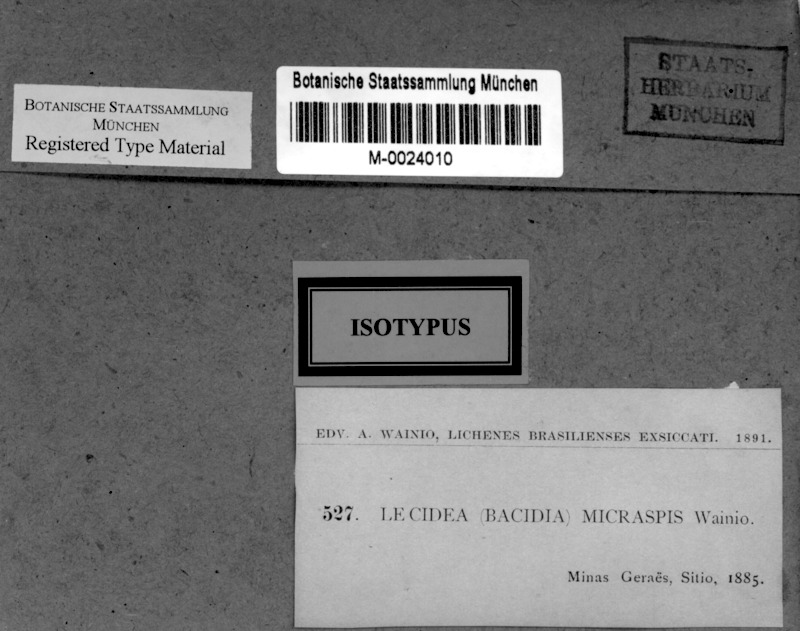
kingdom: Fungi
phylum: Ascomycota
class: Lecanoromycetes
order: Lecanorales
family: Ramalinaceae
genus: Bacidia
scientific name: Bacidia
